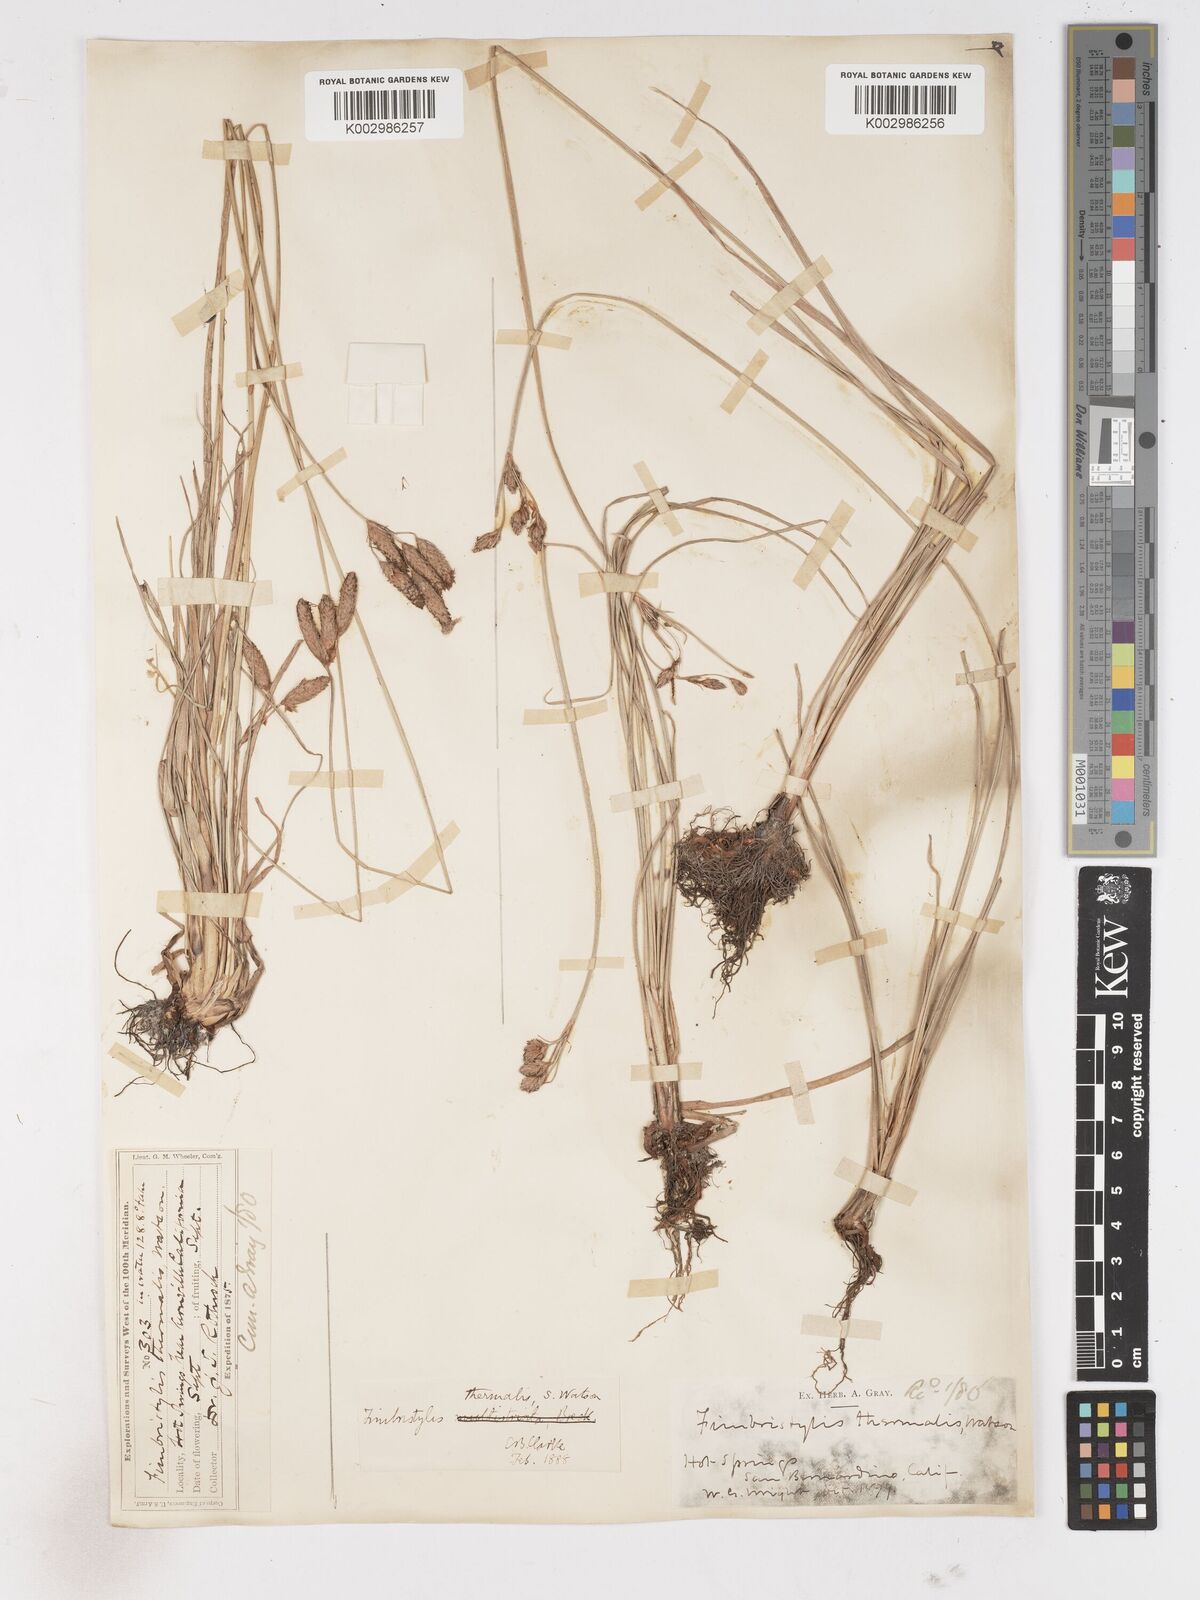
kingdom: Plantae
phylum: Tracheophyta
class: Liliopsida
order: Poales
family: Cyperaceae
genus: Fimbristylis
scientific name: Fimbristylis thermalis
